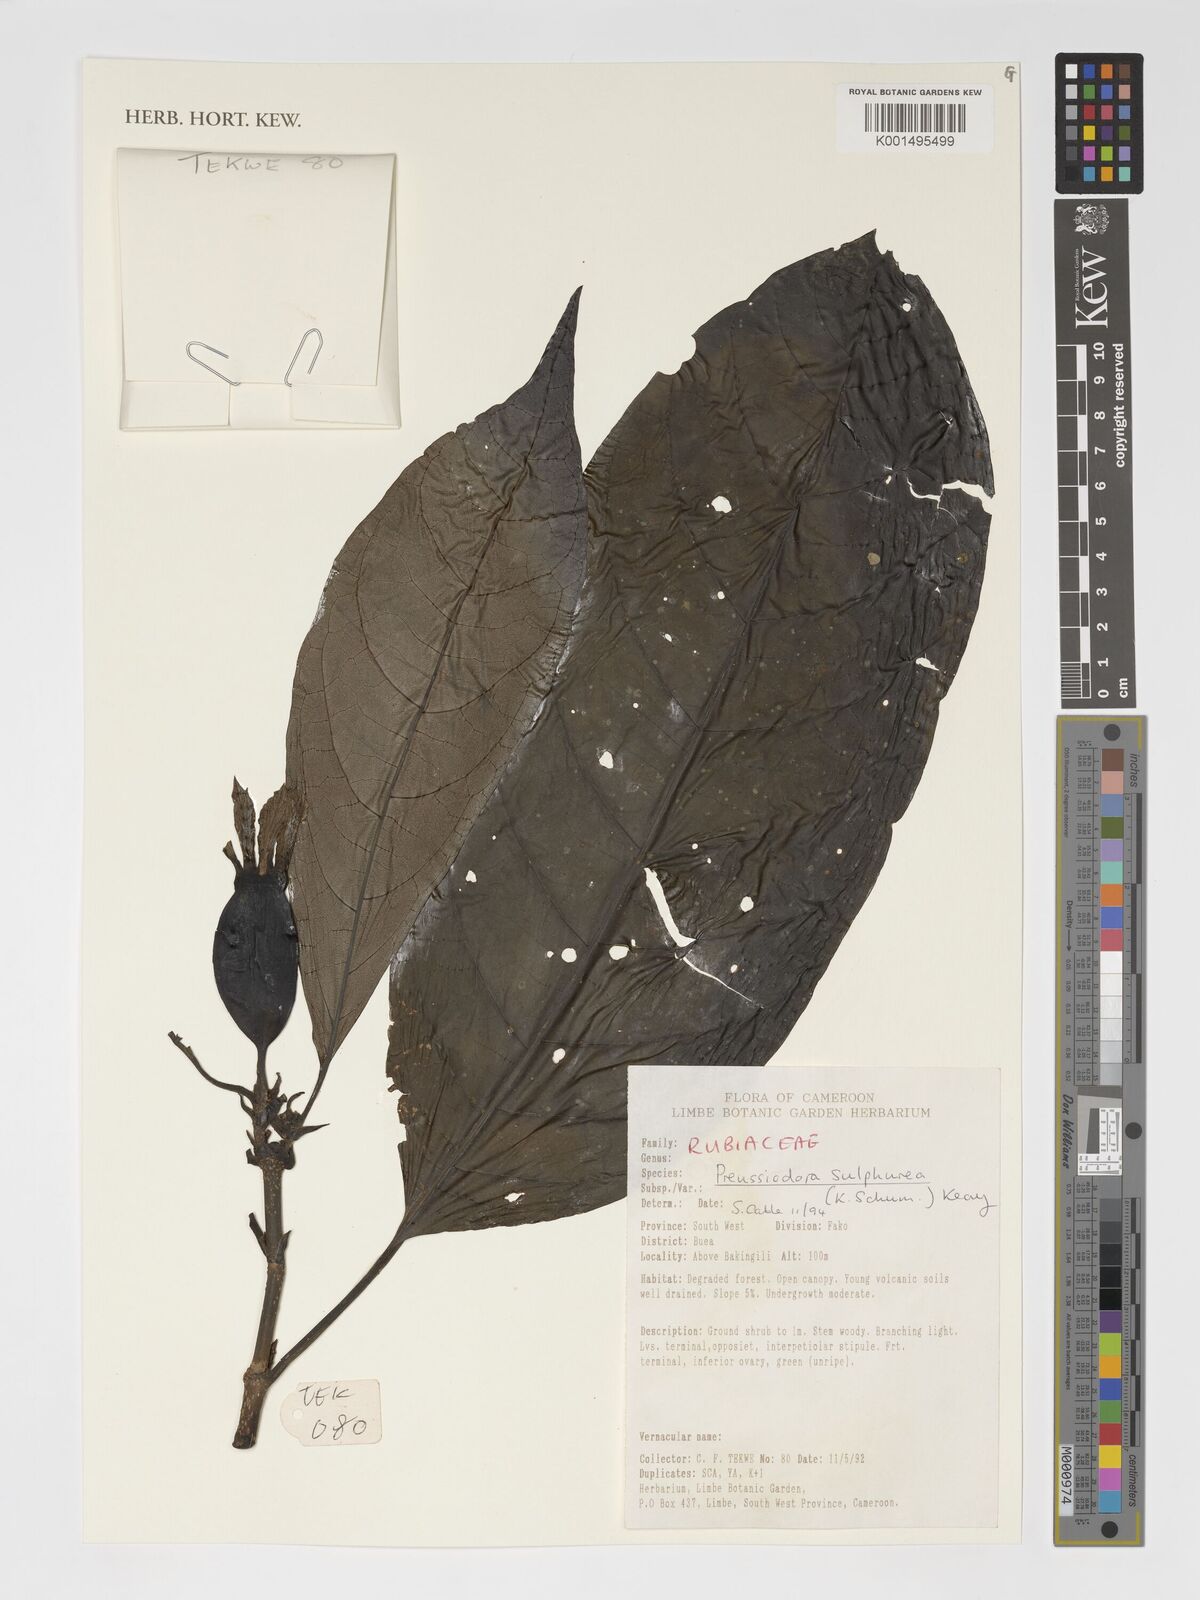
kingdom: Plantae
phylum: Tracheophyta
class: Magnoliopsida
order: Gentianales
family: Rubiaceae
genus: Preussiodora
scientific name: Preussiodora sulphurea
